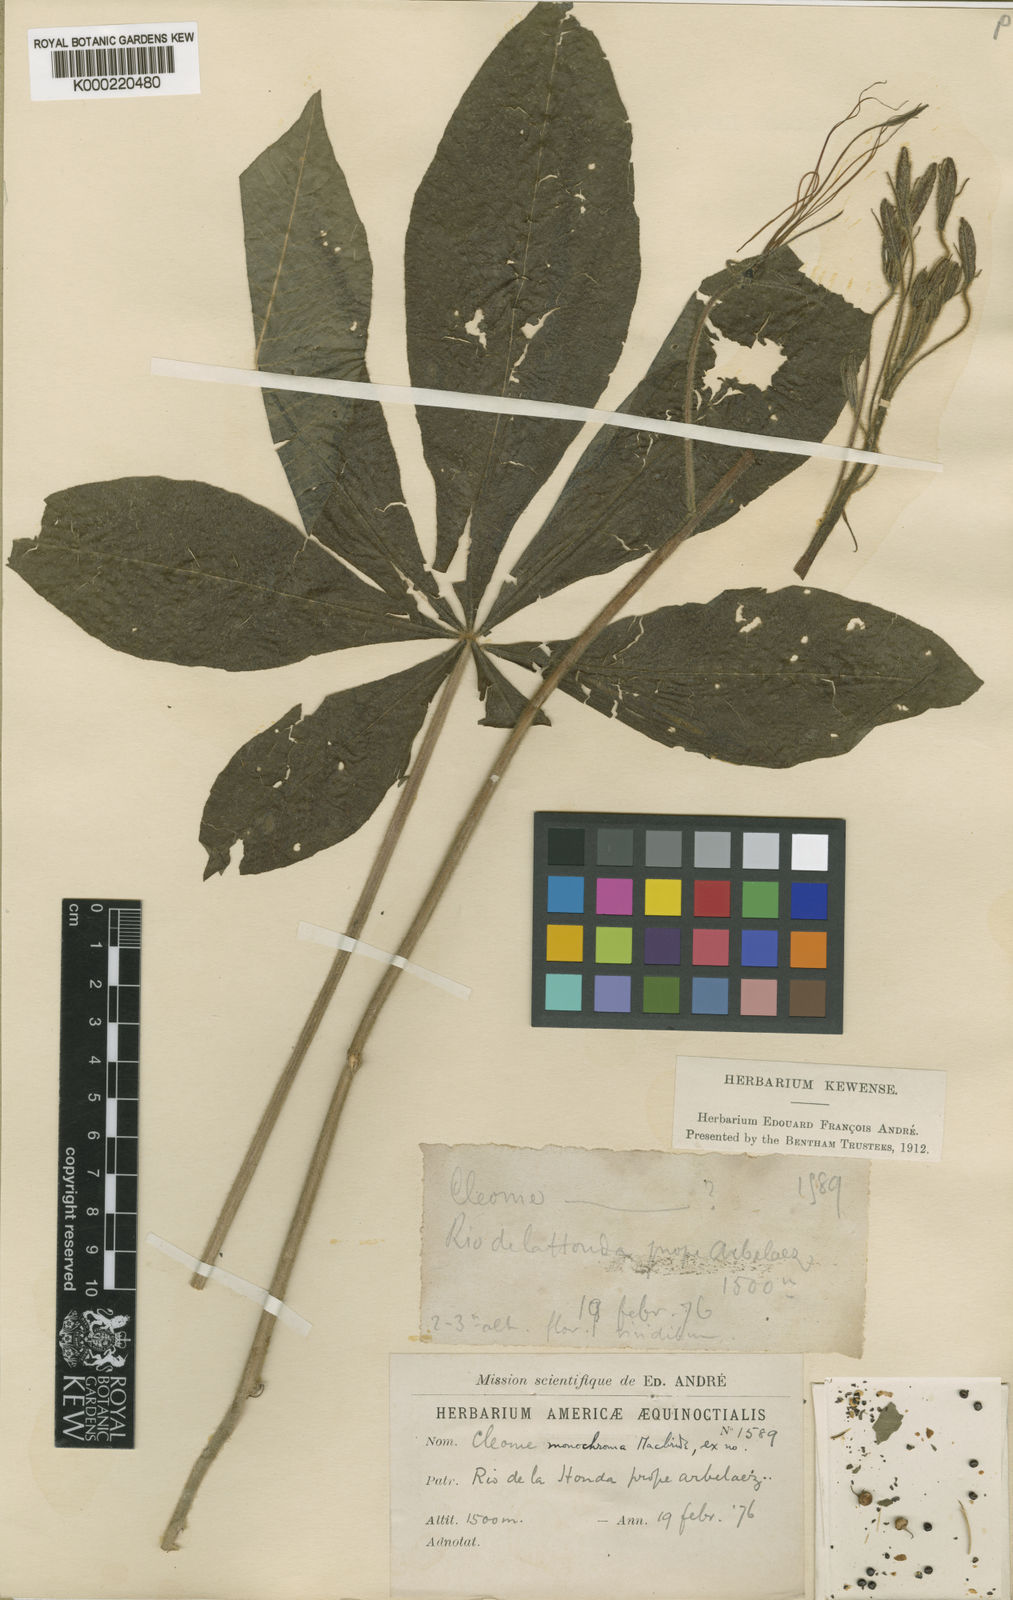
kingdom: Plantae
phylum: Tracheophyta
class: Magnoliopsida
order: Brassicales
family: Cleomaceae
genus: Melidiscus
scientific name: Melidiscus gigantea
